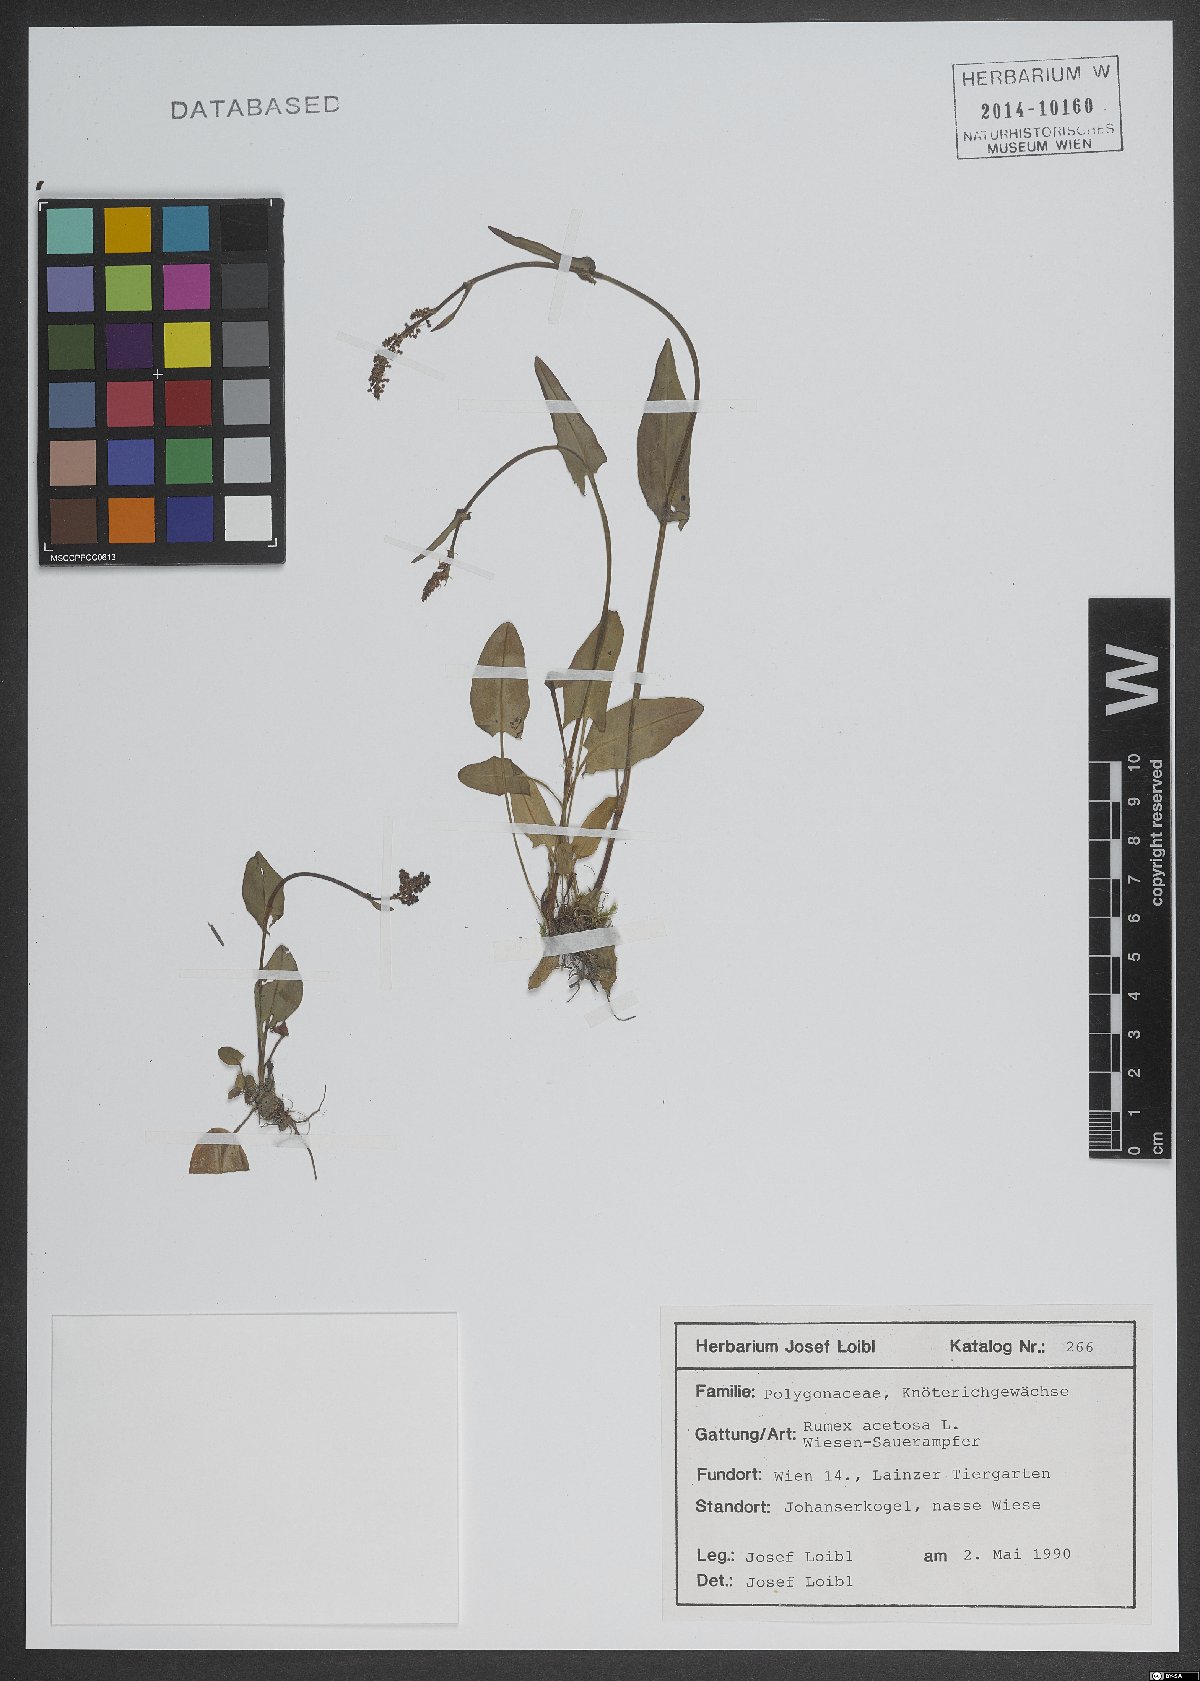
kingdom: Plantae
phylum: Tracheophyta
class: Magnoliopsida
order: Caryophyllales
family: Polygonaceae
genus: Rumex
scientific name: Rumex acetosa
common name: Garden sorrel
